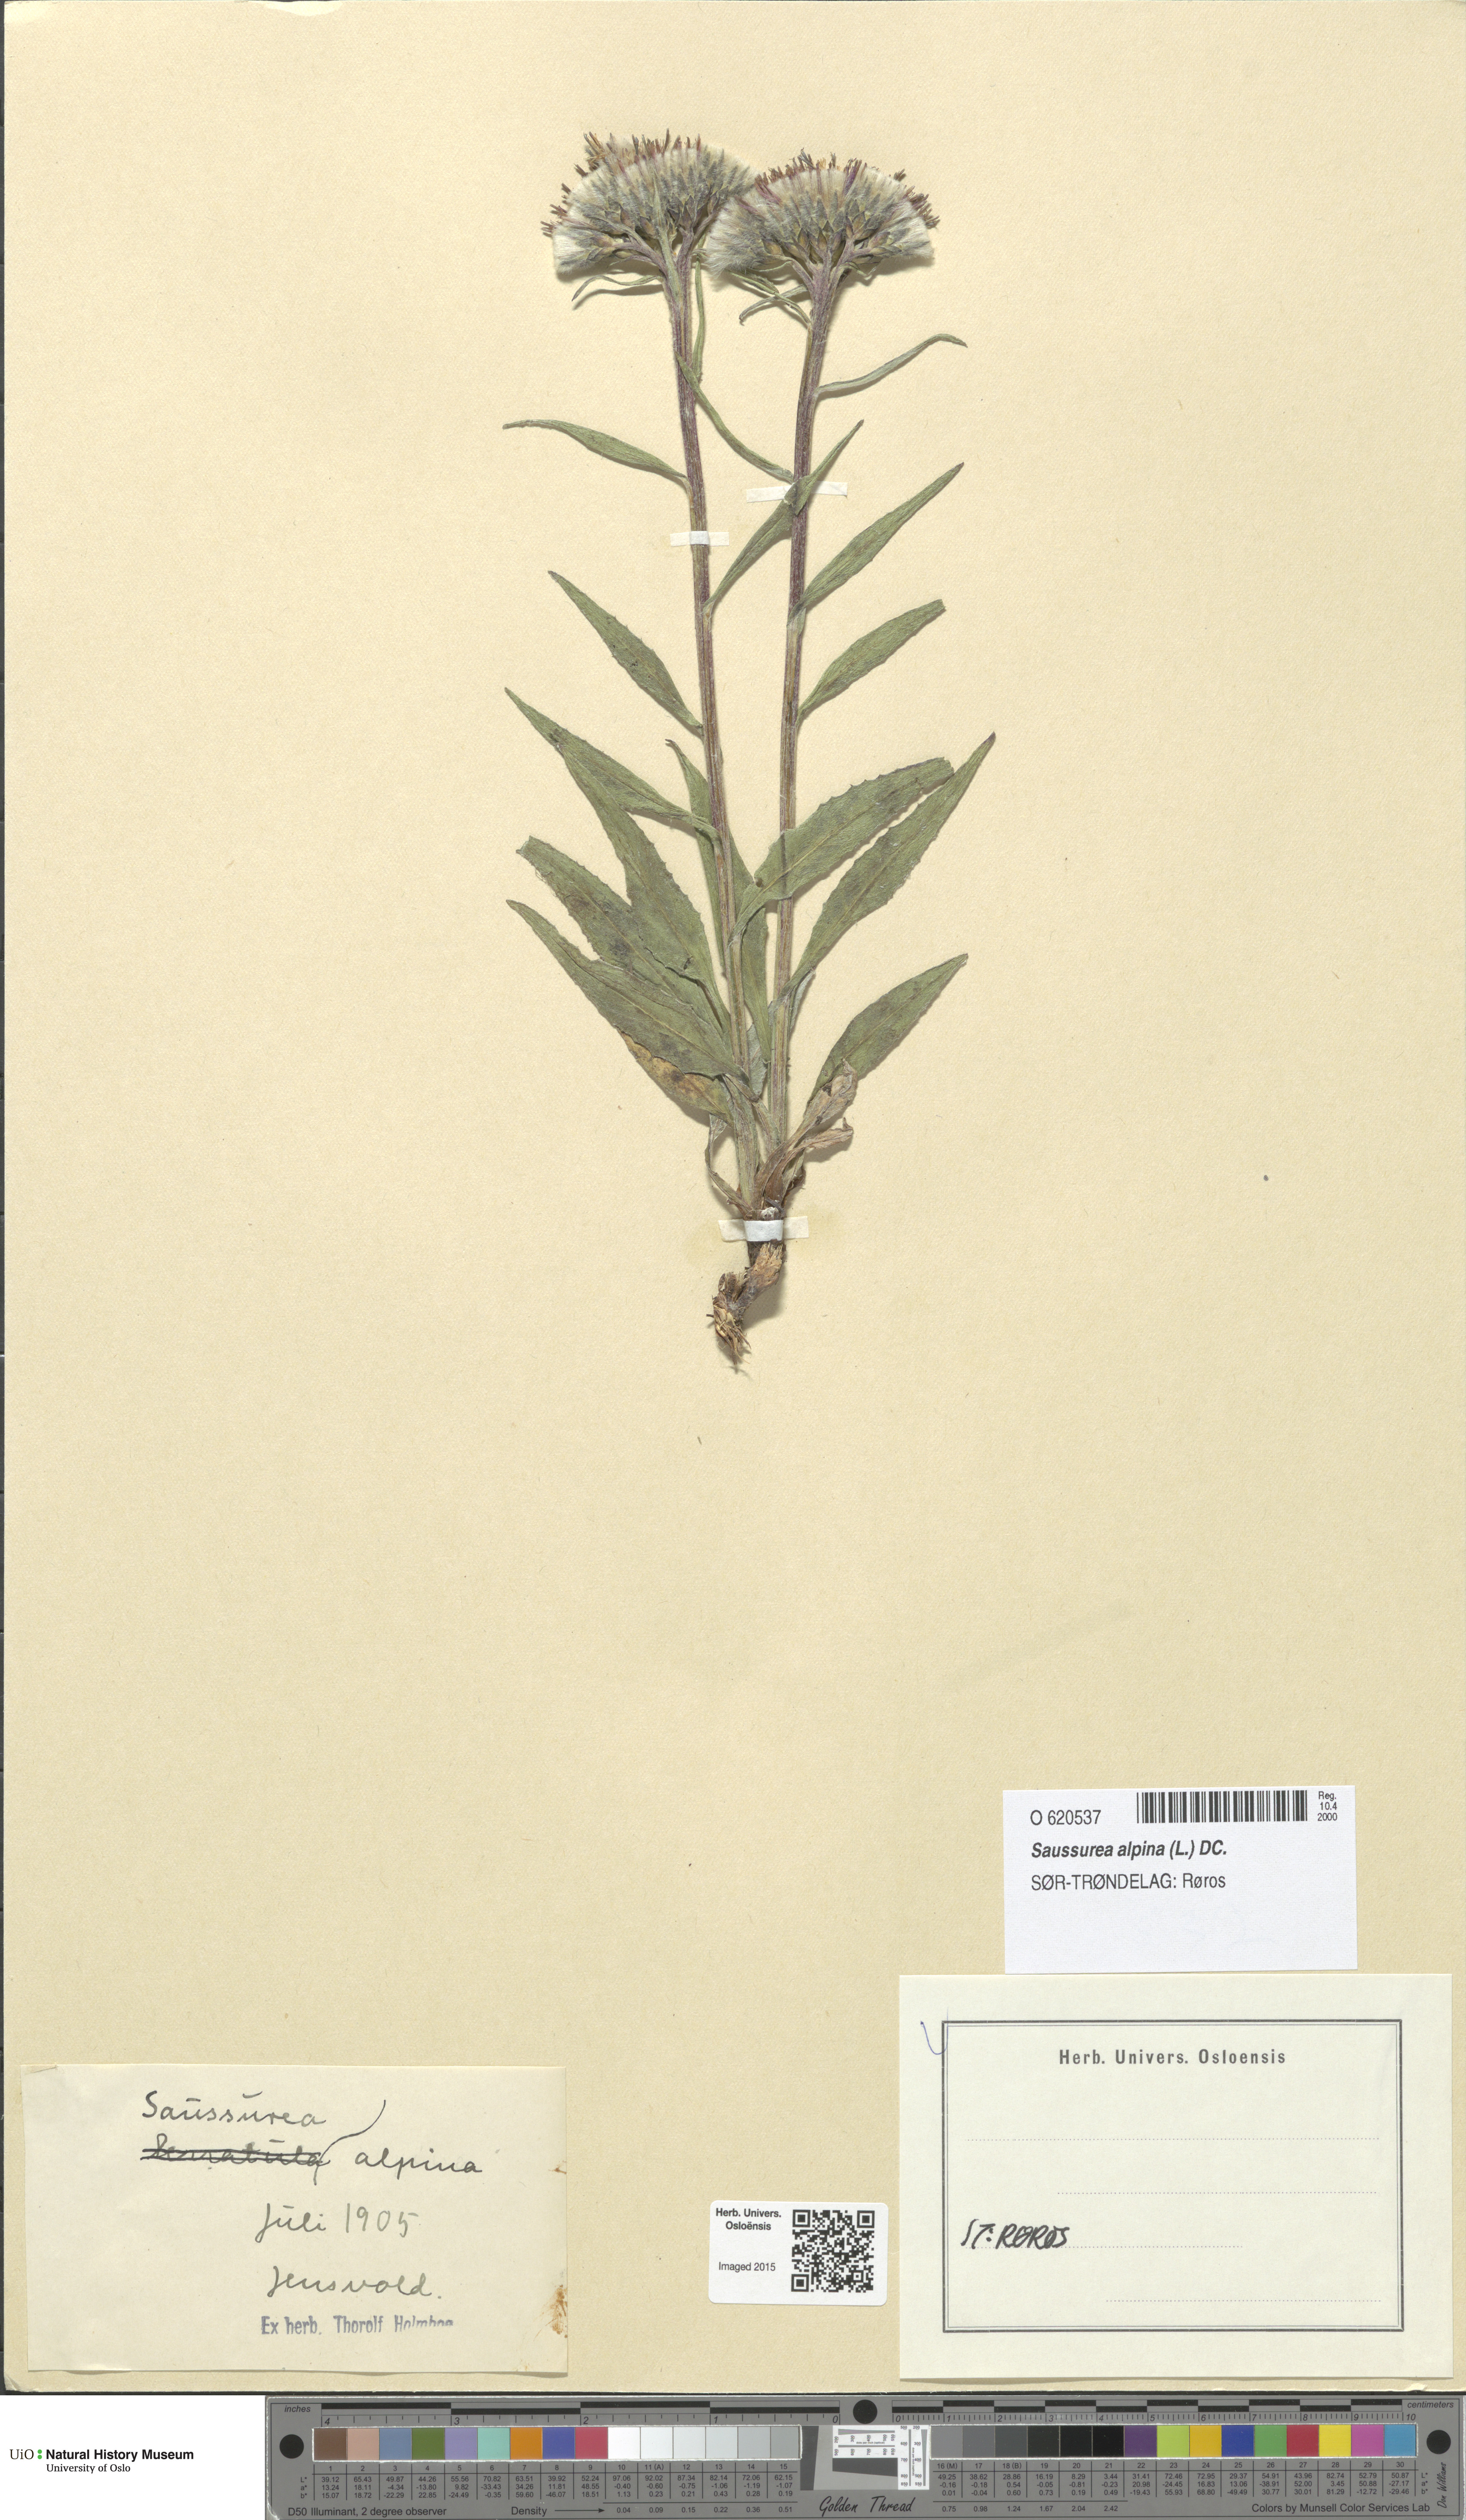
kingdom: Plantae
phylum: Tracheophyta
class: Magnoliopsida
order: Asterales
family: Asteraceae
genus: Saussurea
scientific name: Saussurea alpina
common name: Alpine saw-wort
